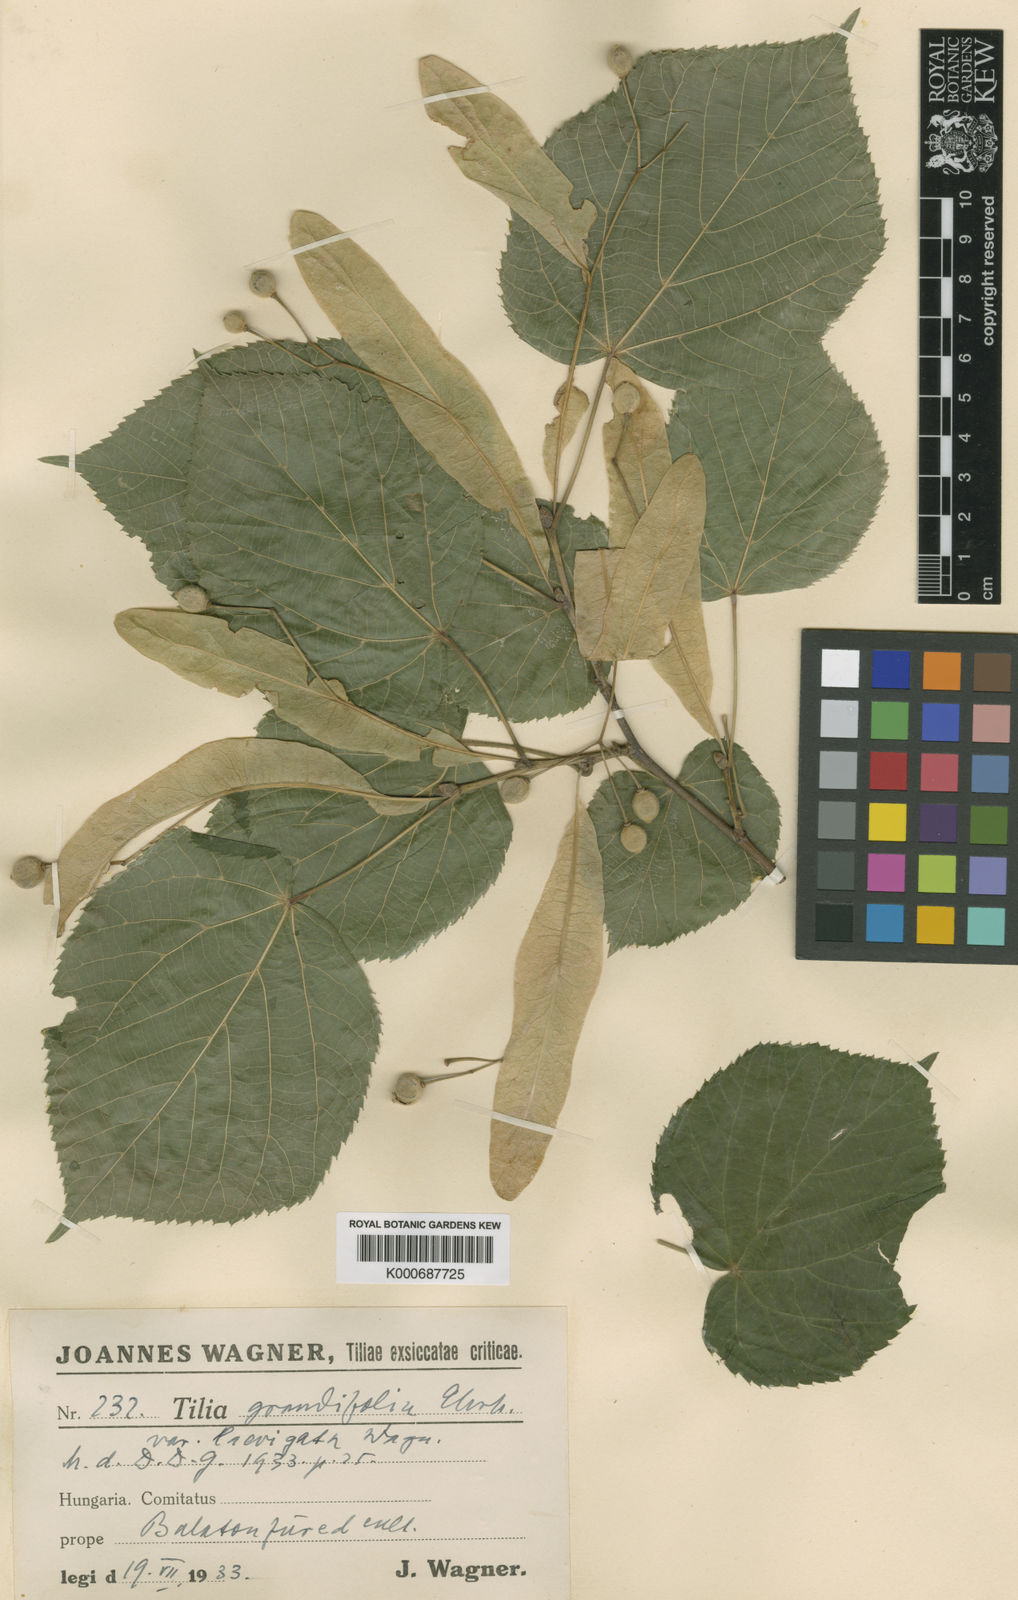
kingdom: Plantae
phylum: Tracheophyta
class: Magnoliopsida
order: Malvales
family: Malvaceae
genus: Tilia
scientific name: Tilia platyphyllos
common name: Large-leaved lime
